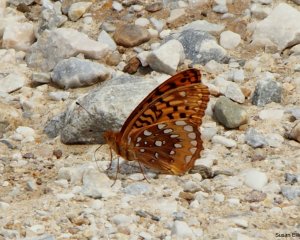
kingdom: Animalia
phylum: Arthropoda
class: Insecta
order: Lepidoptera
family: Nymphalidae
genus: Speyeria
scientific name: Speyeria cybele
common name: Great Spangled Fritillary
